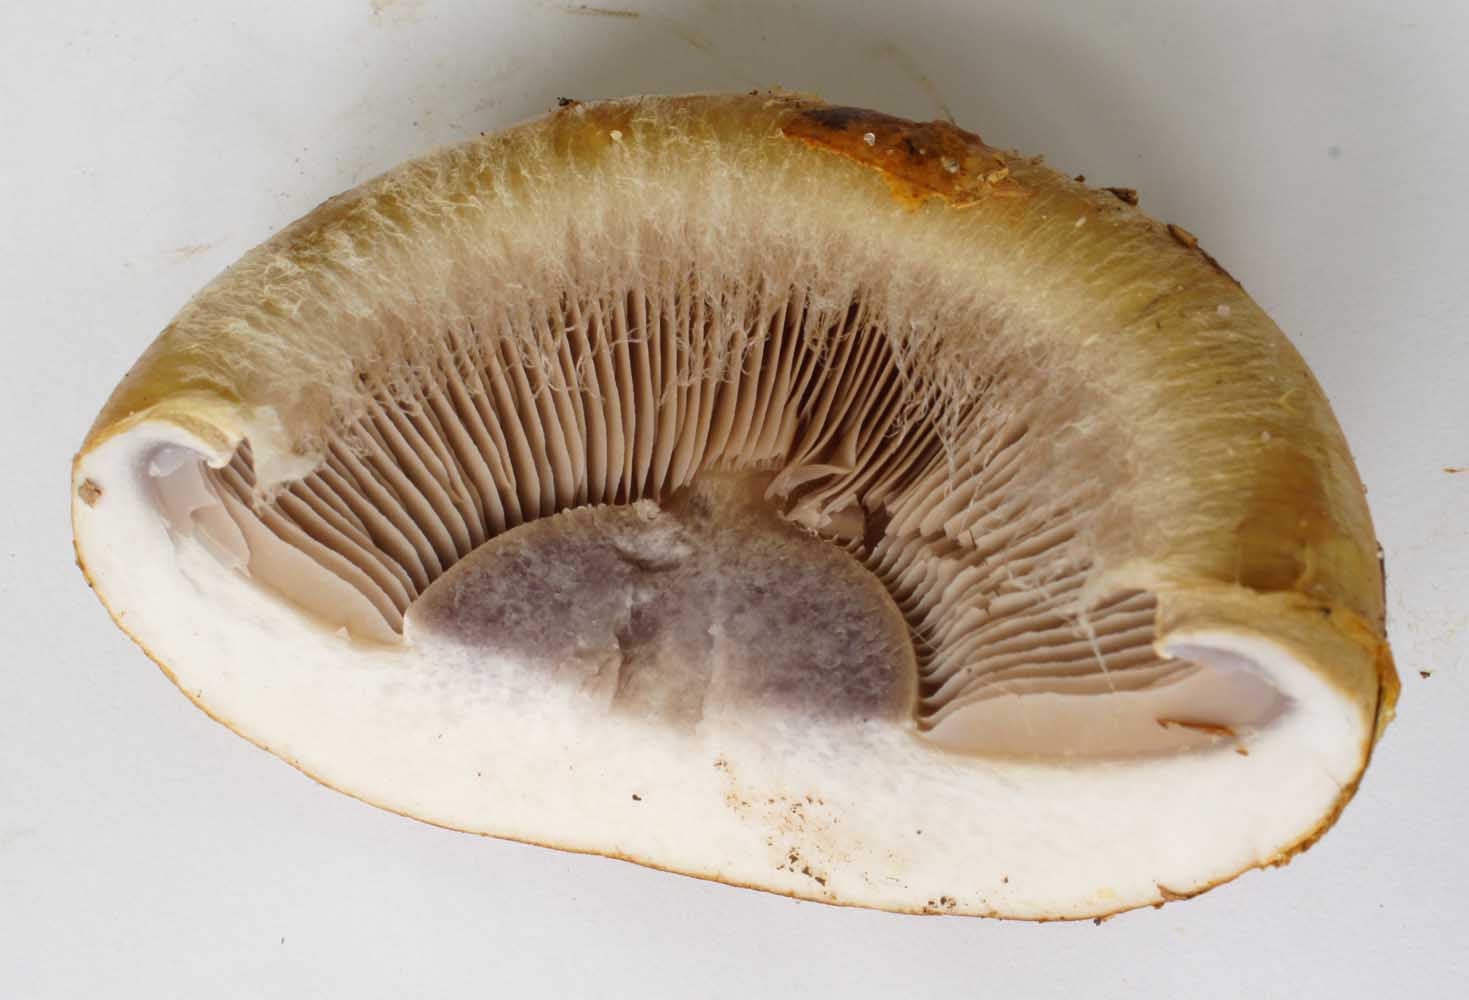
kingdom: Fungi
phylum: Basidiomycota
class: Agaricomycetes
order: Agaricales
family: Cortinariaceae
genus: Cortinarius
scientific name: Cortinarius anserinus
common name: bøge-slørhat
